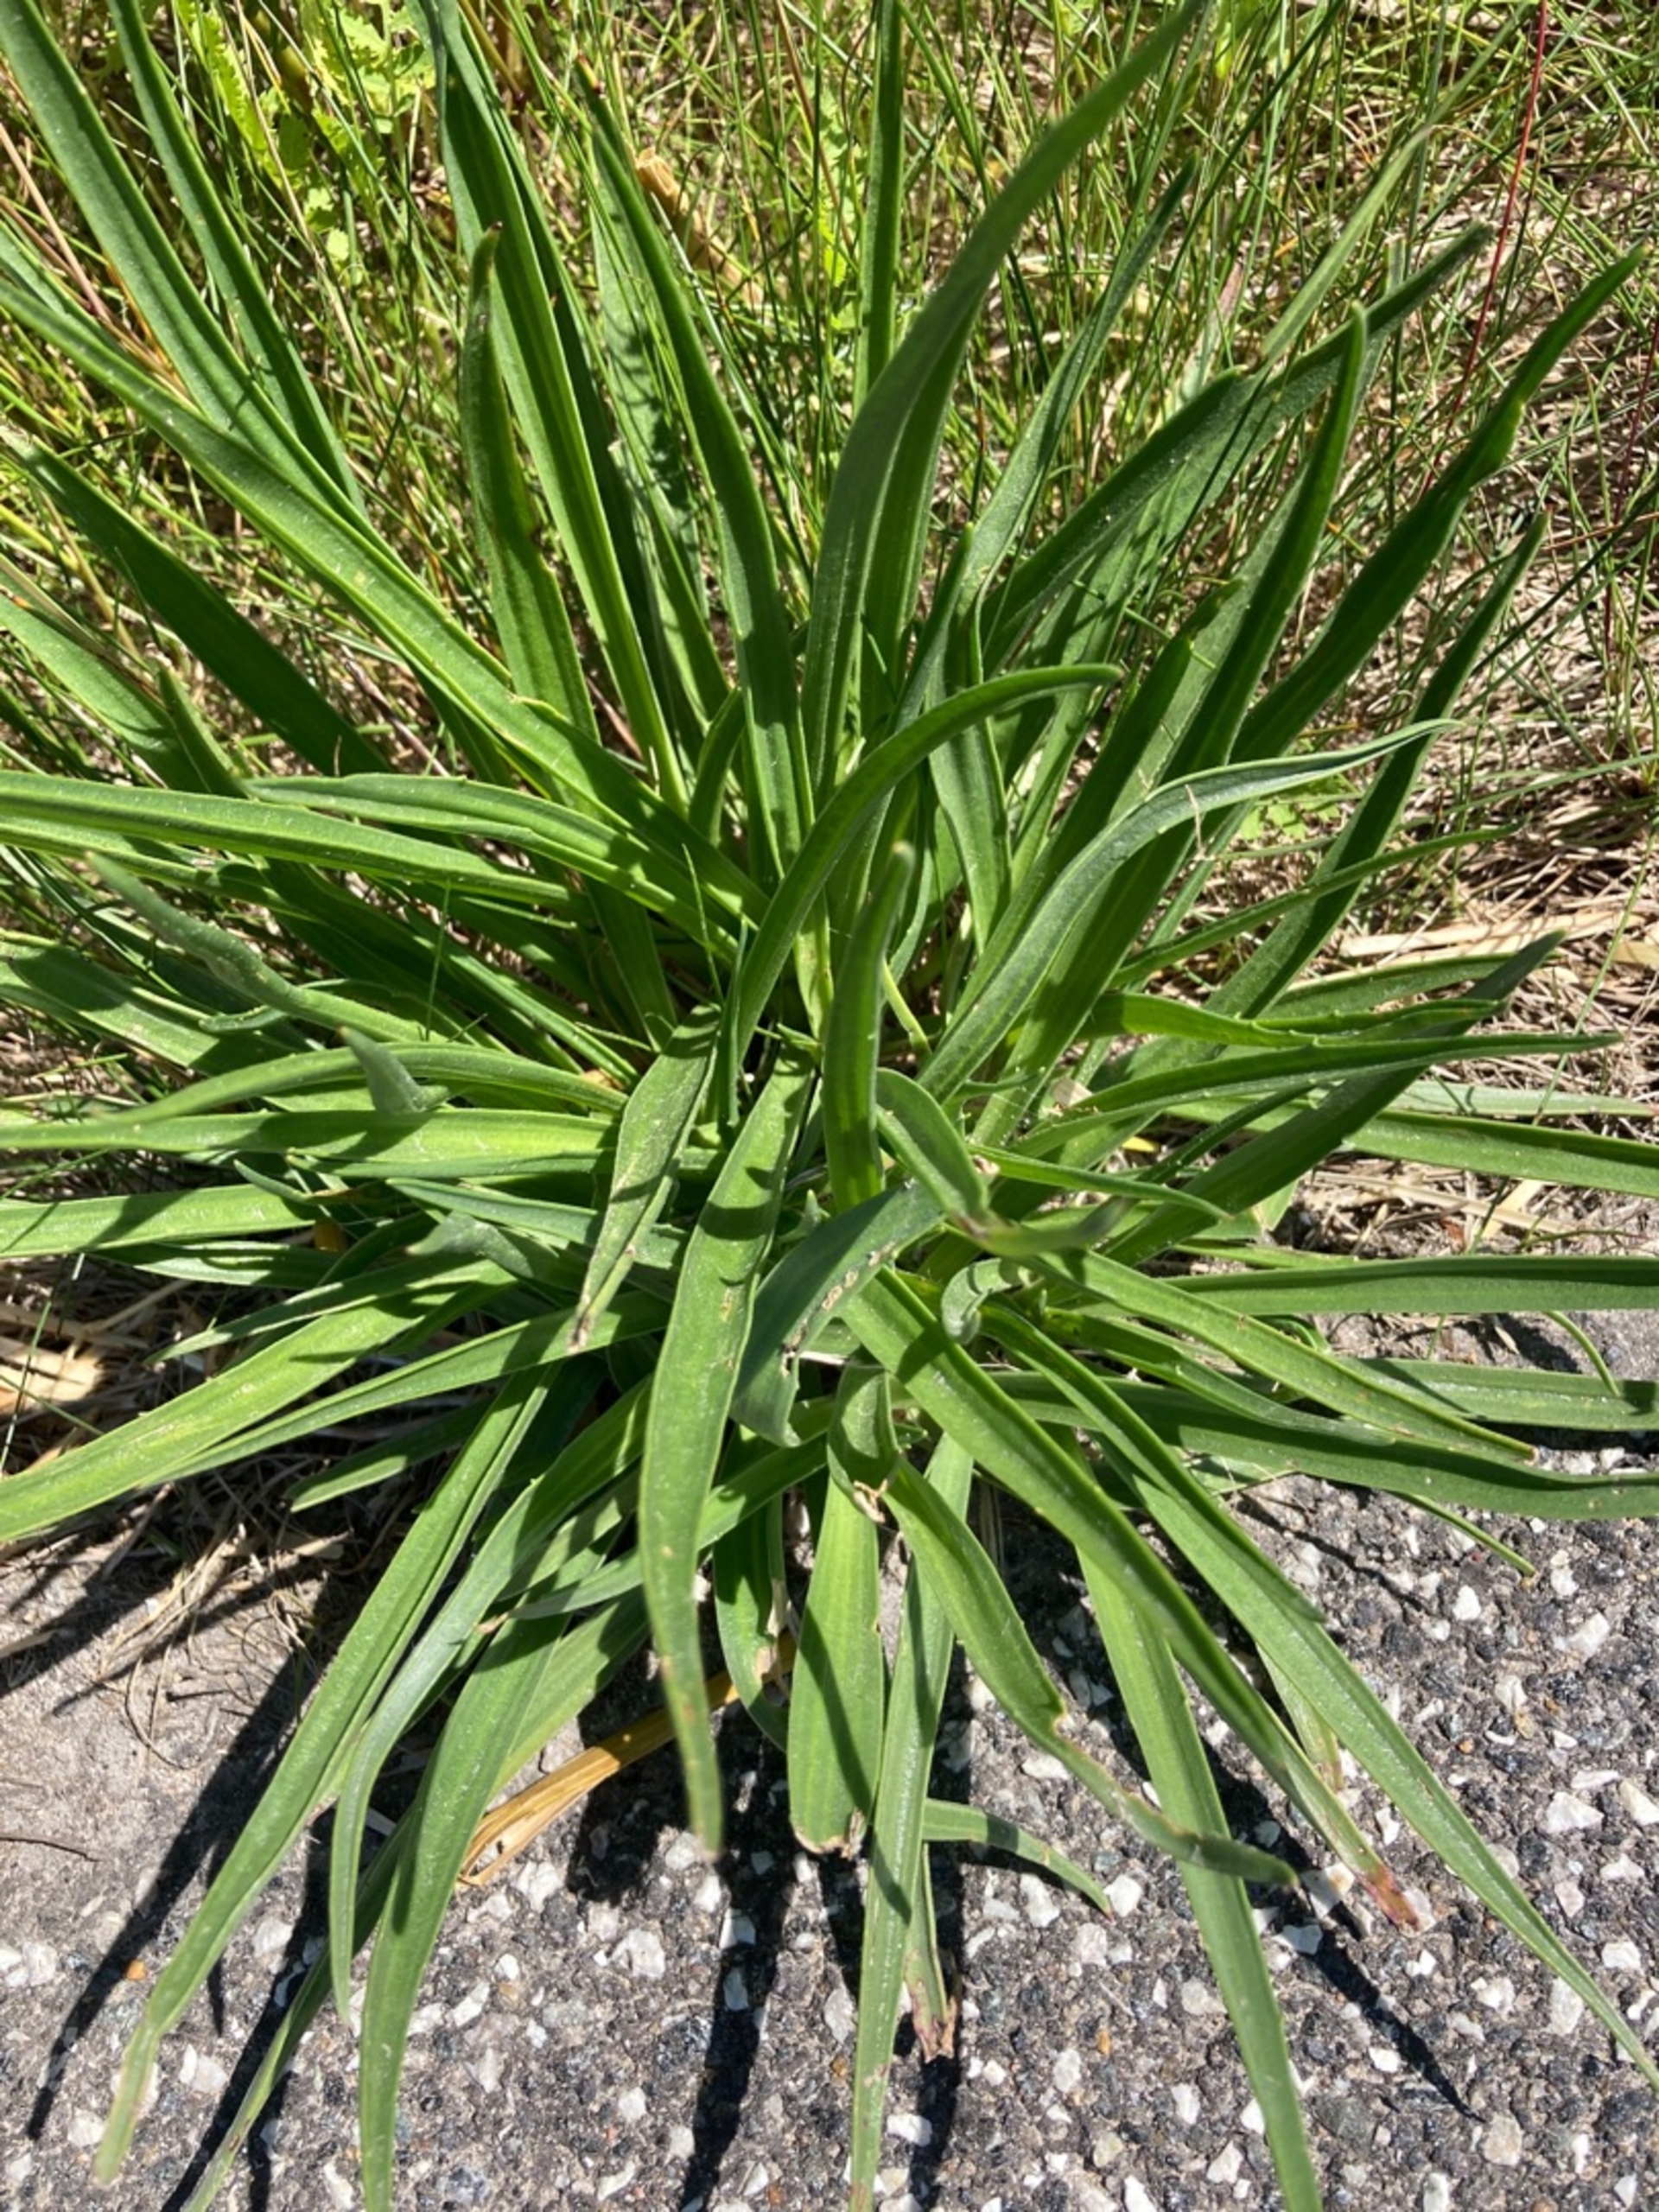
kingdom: Plantae
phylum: Tracheophyta
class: Magnoliopsida
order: Lamiales
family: Plantaginaceae
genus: Plantago
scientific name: Plantago maritima
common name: Strand-vejbred
